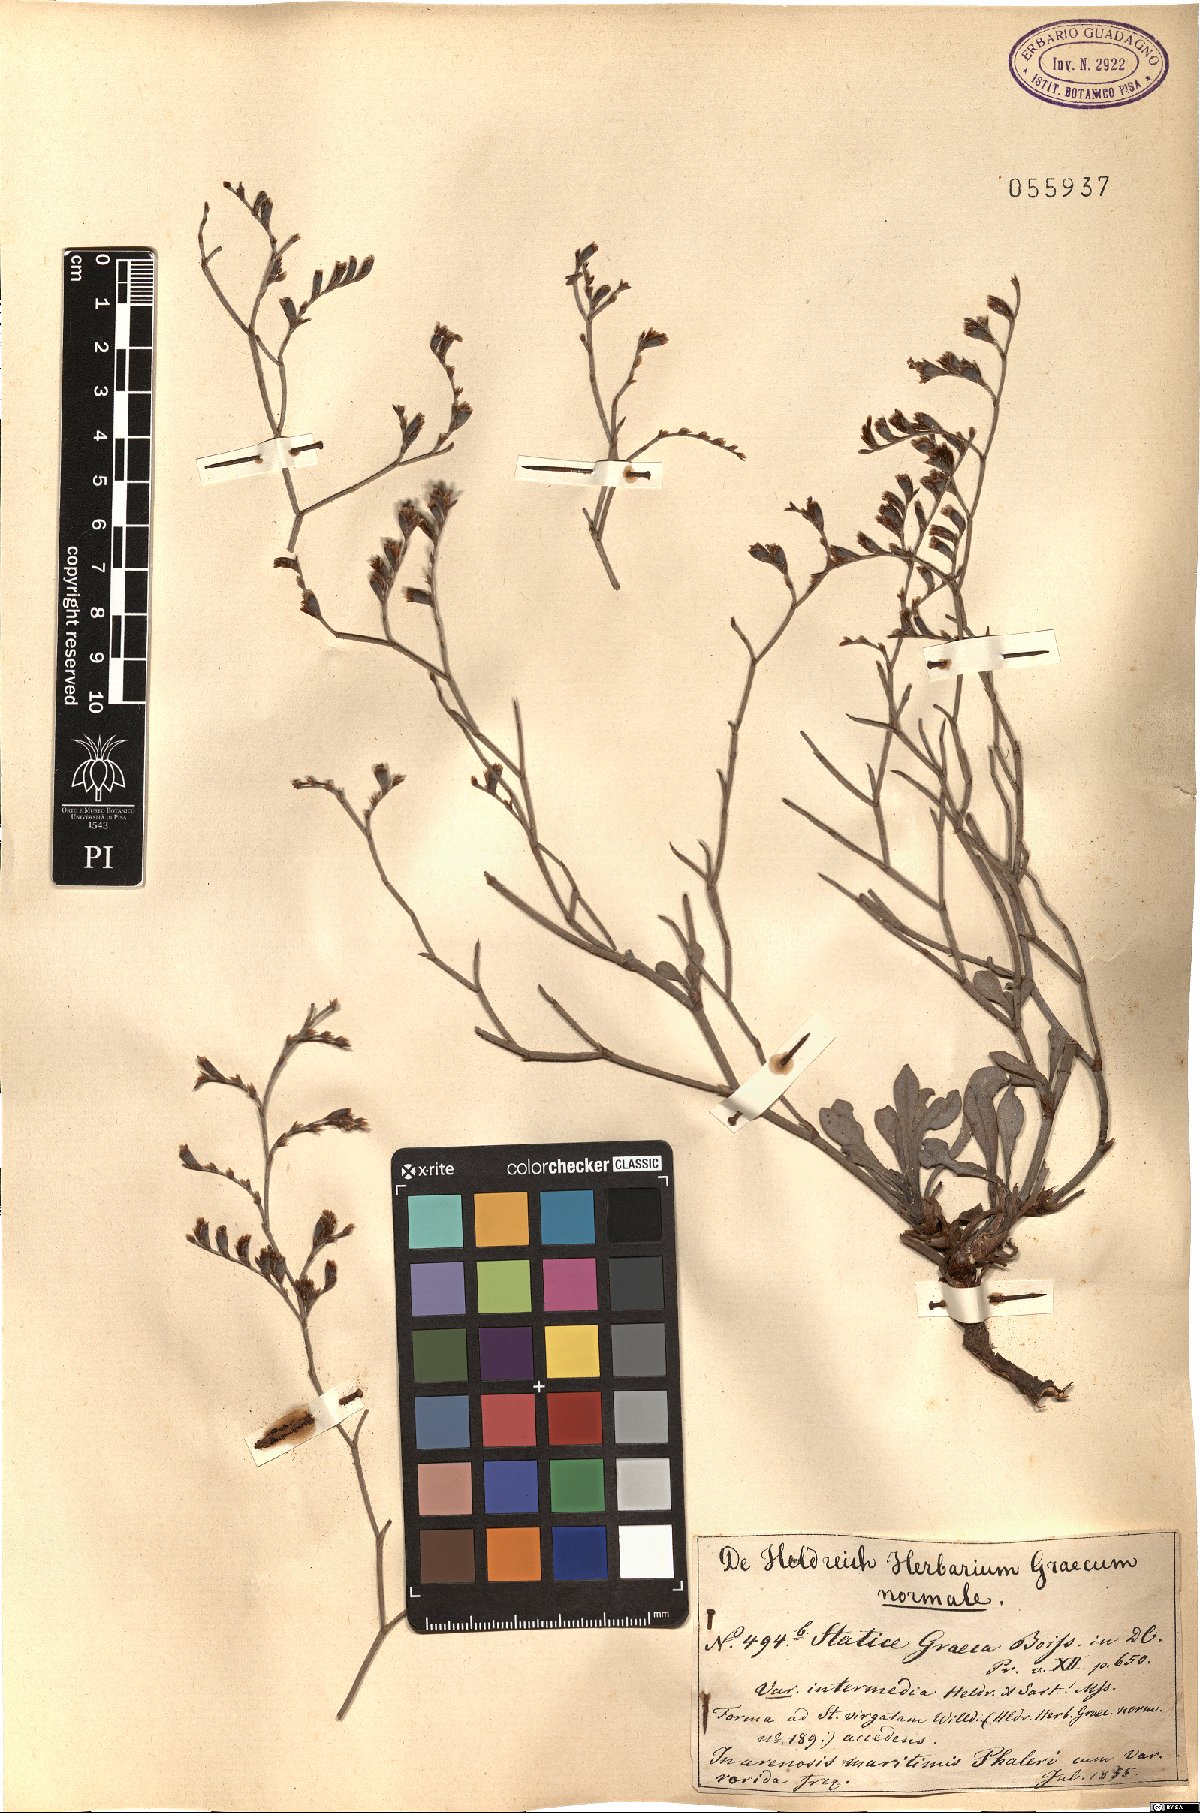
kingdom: Plantae
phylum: Tracheophyta
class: Magnoliopsida
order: Caryophyllales
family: Plumbaginaceae
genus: Limonium
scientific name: Limonium
